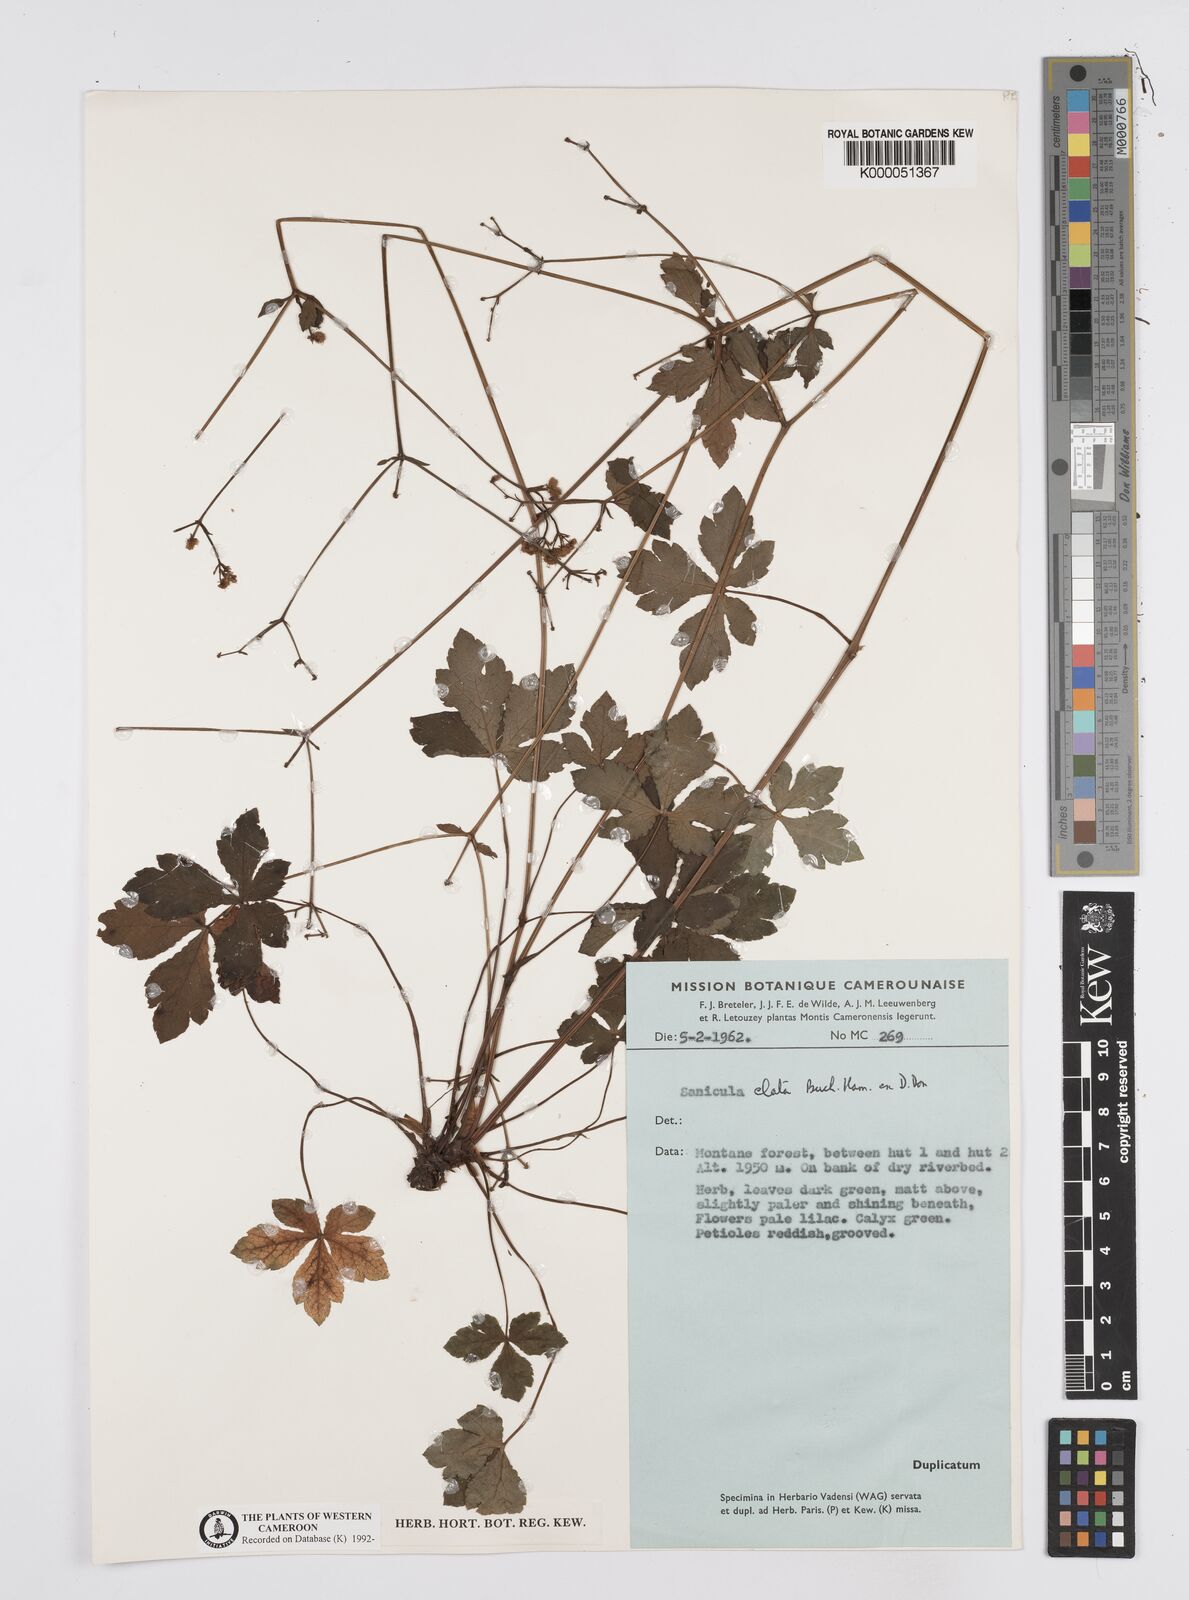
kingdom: Plantae
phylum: Tracheophyta
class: Magnoliopsida
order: Apiales
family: Apiaceae
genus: Sanicula
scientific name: Sanicula
